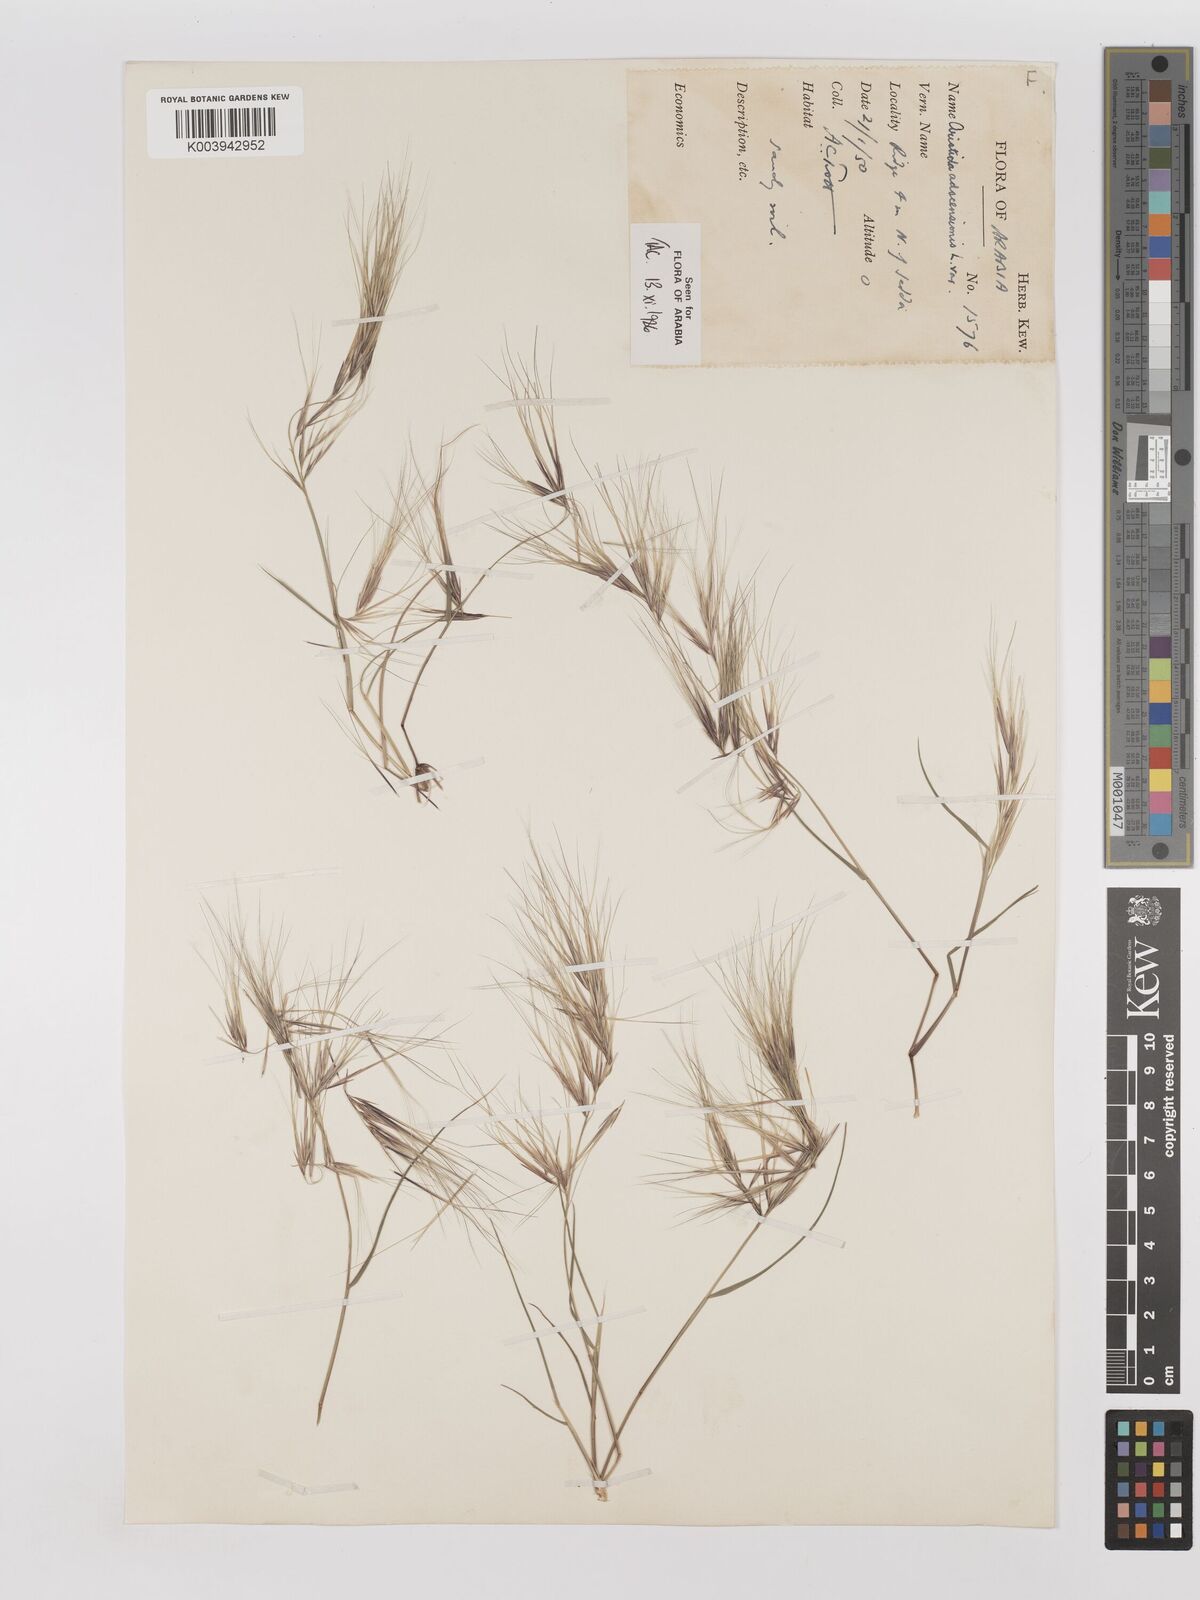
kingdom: Plantae
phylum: Tracheophyta
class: Liliopsida
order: Poales
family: Poaceae
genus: Aristida
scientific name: Aristida adscensionis
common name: Sixweeks threeawn
